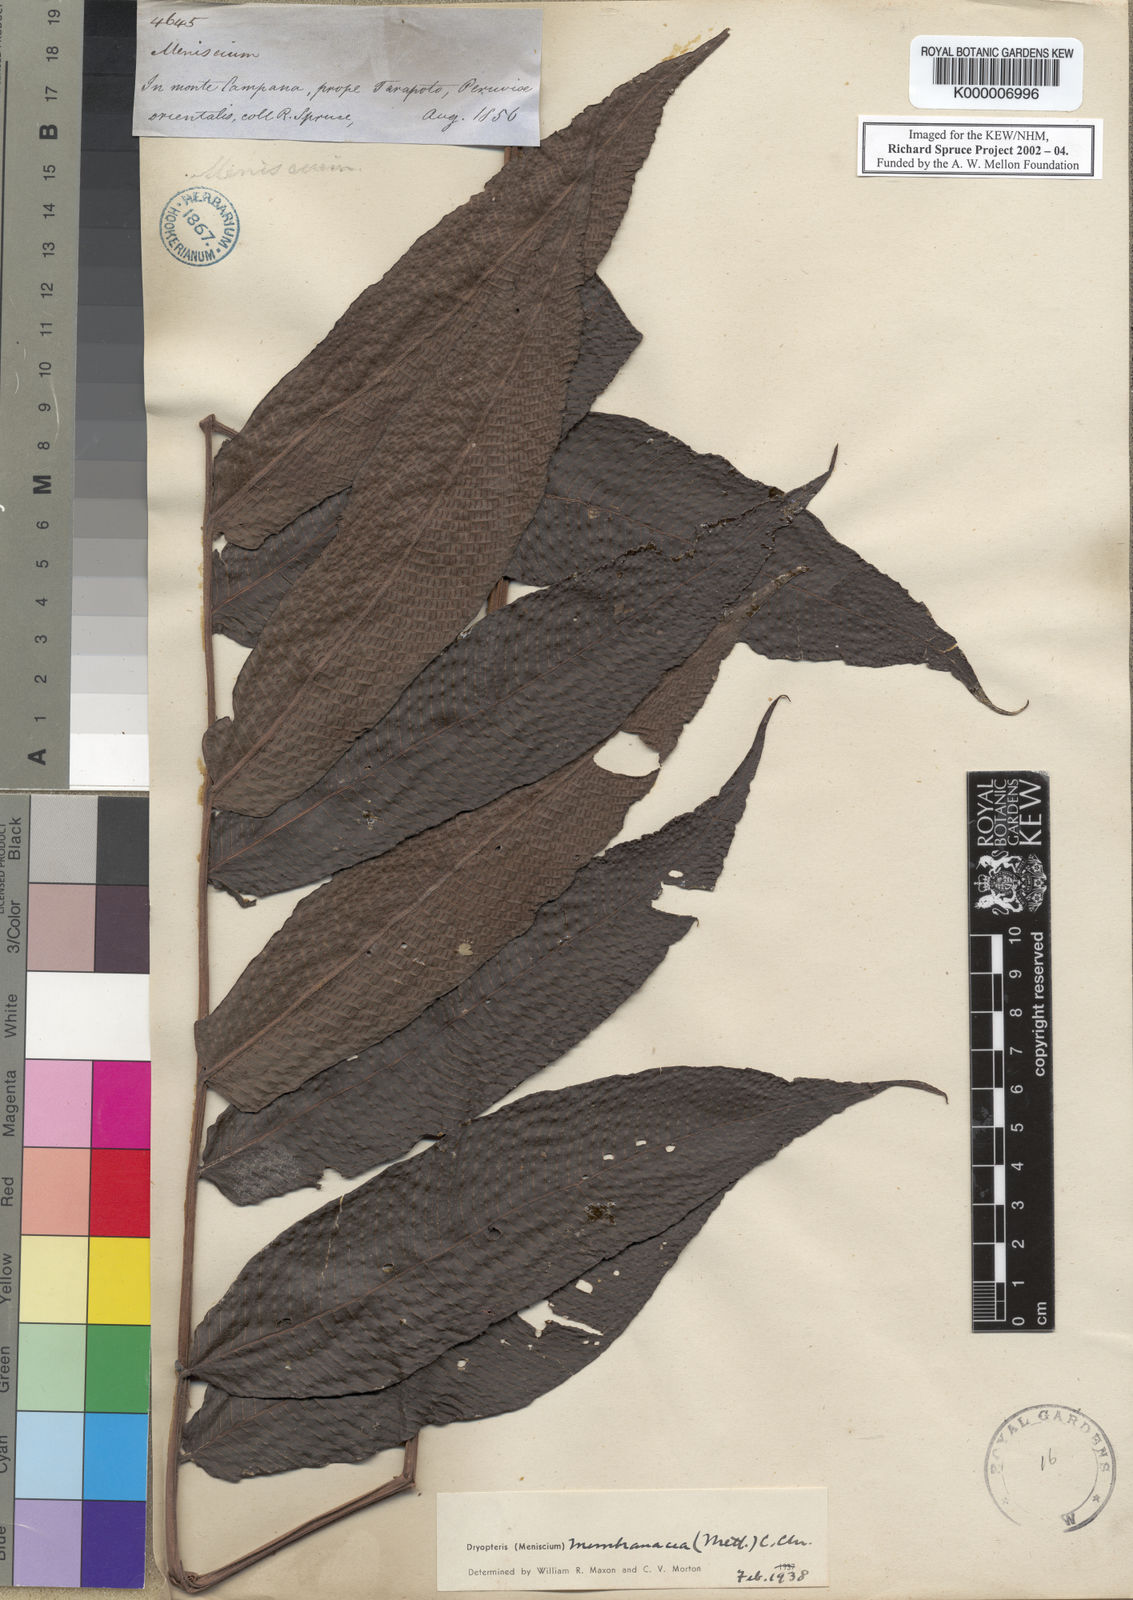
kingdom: Plantae
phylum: Tracheophyta
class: Polypodiopsida
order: Polypodiales
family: Thelypteridaceae
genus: Meniscium
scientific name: Meniscium membranaceum
